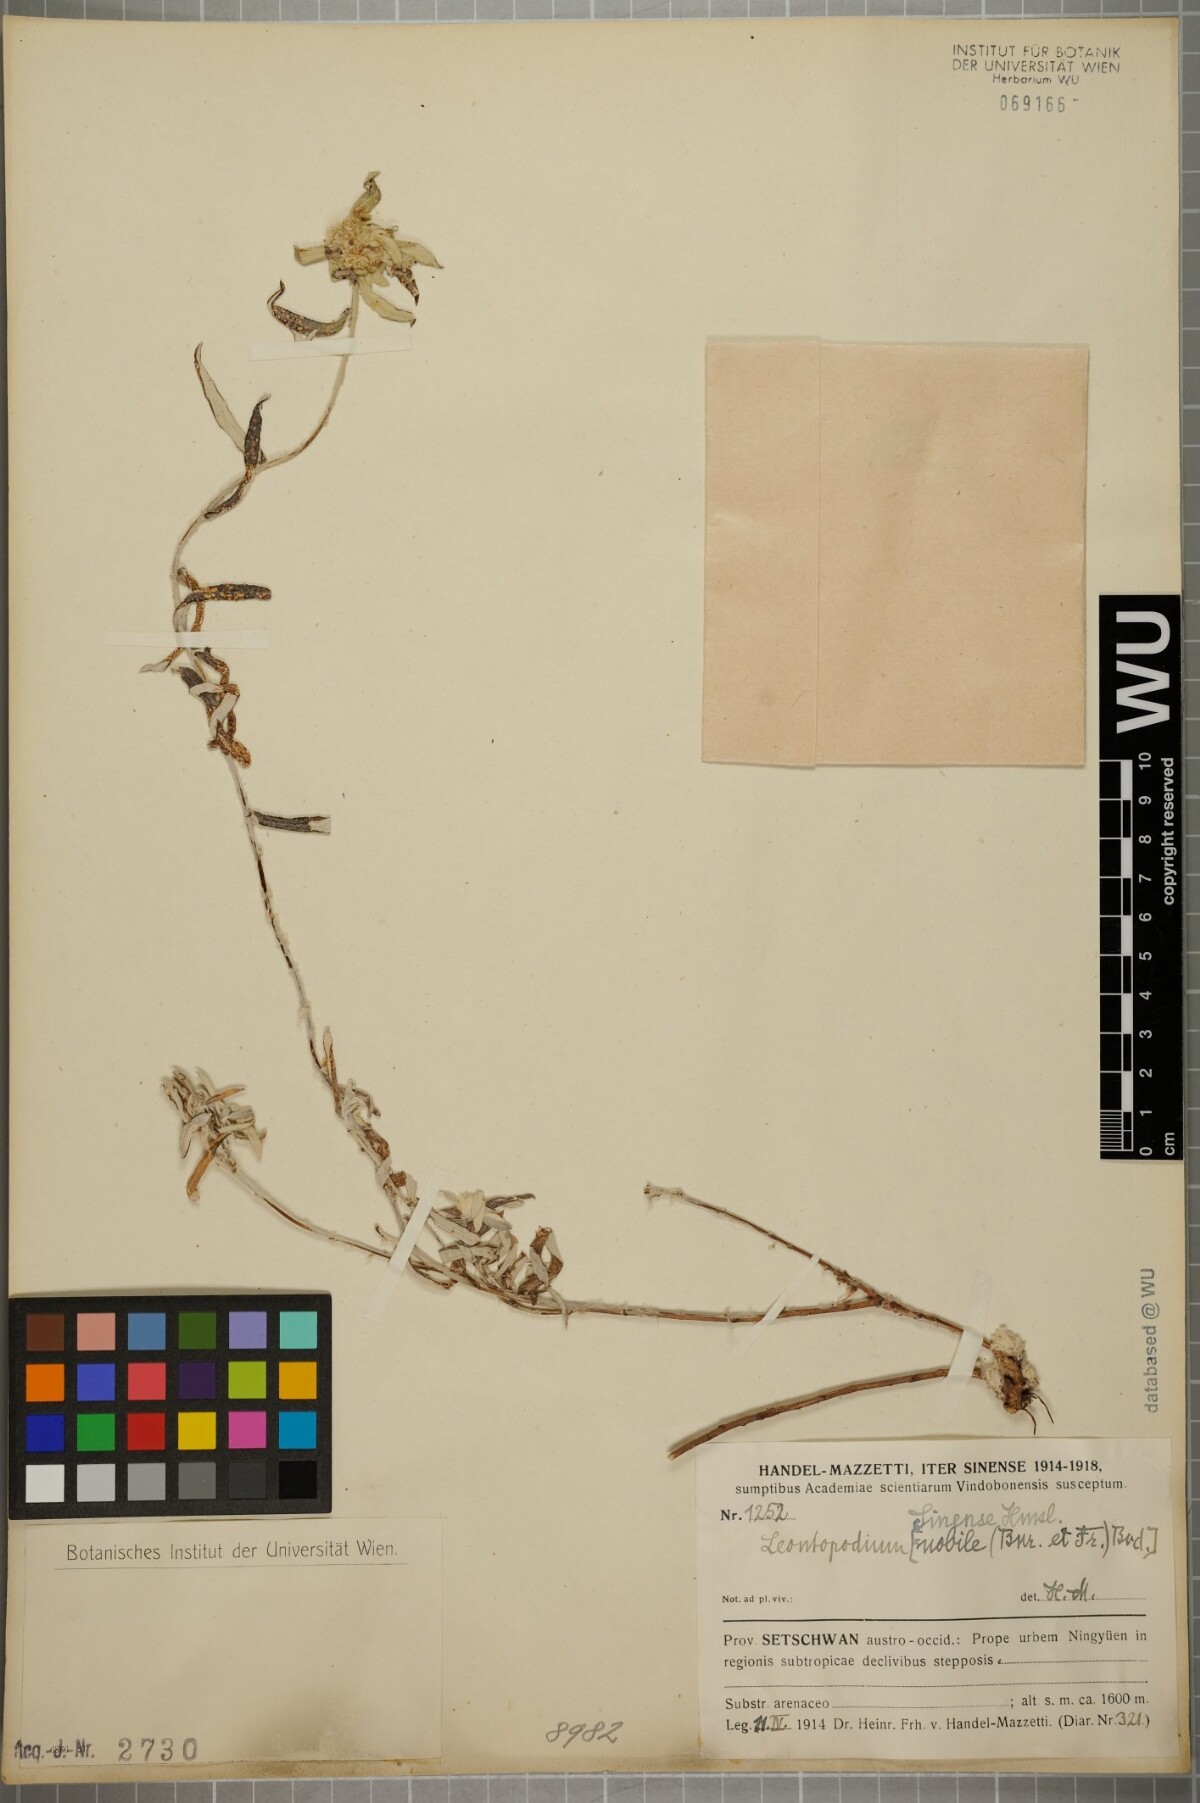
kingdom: Plantae
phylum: Tracheophyta
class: Magnoliopsida
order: Asterales
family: Asteraceae
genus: Leontopodium
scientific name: Leontopodium sinense
